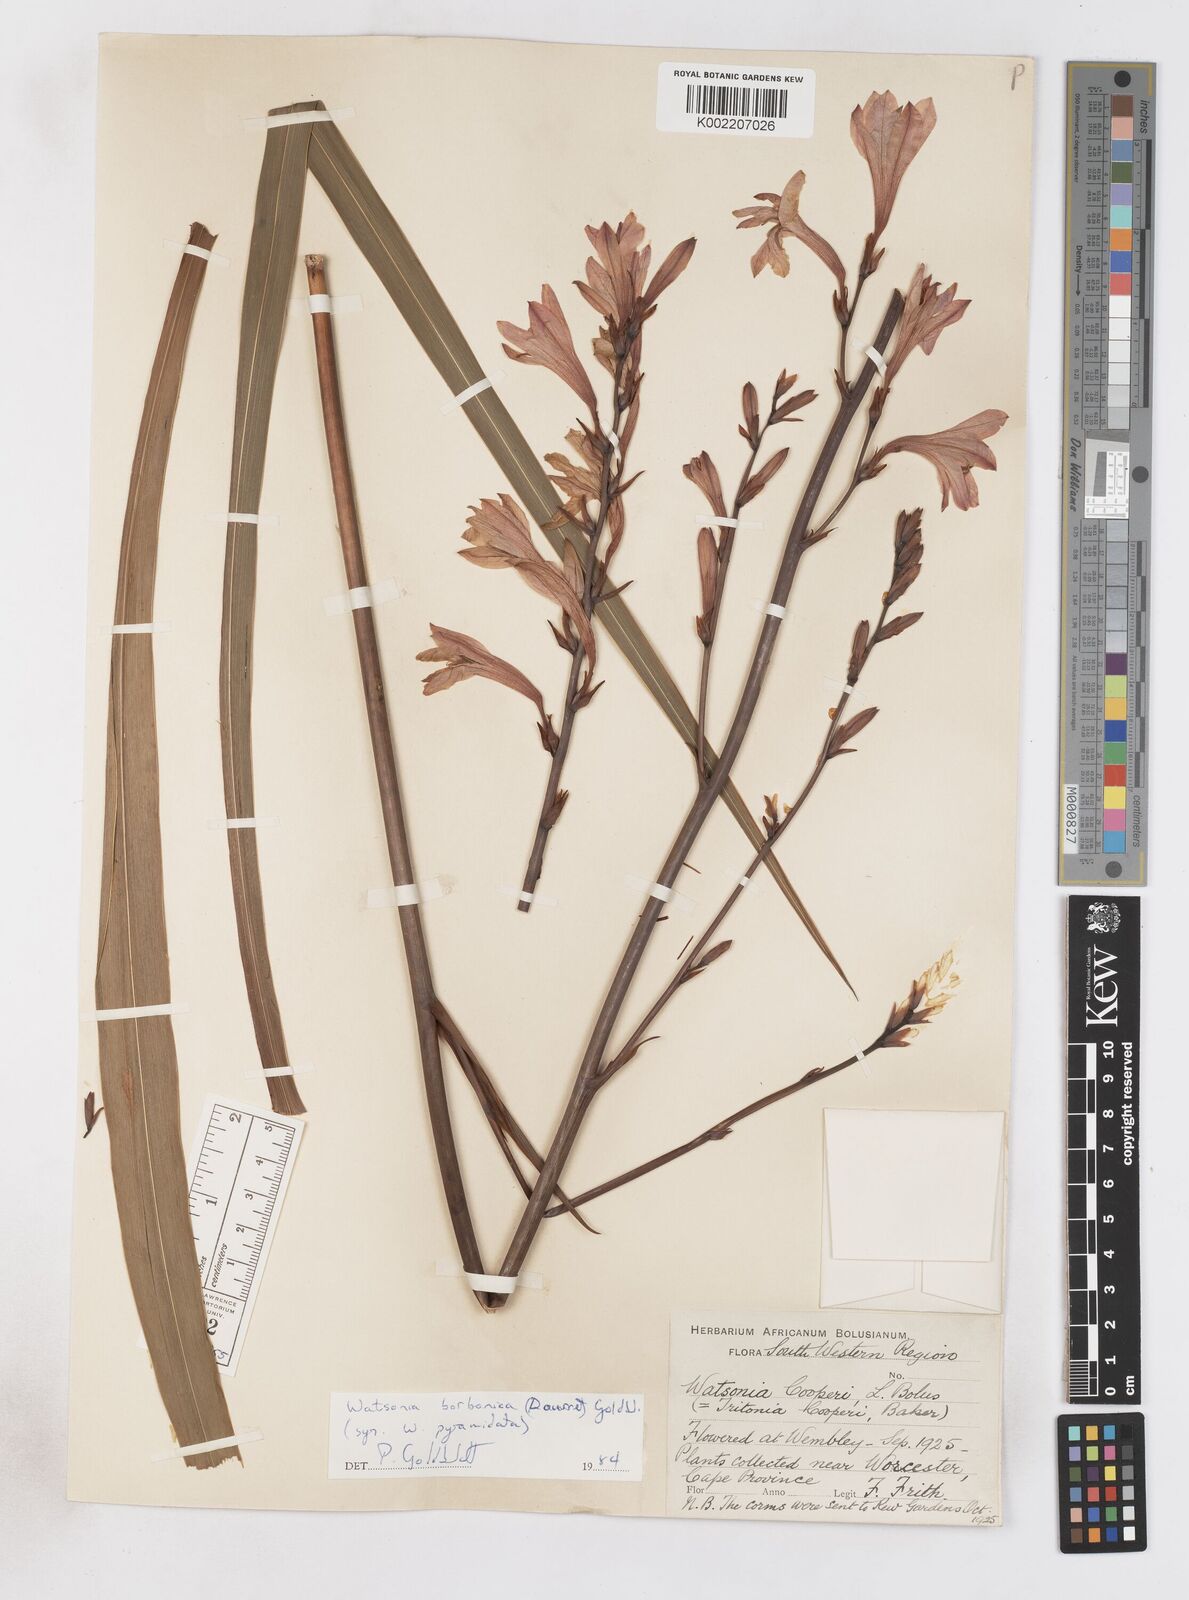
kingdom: Plantae
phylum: Tracheophyta
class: Liliopsida
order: Asparagales
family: Iridaceae
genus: Watsonia
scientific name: Watsonia borbonica
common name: Bugle-lily
